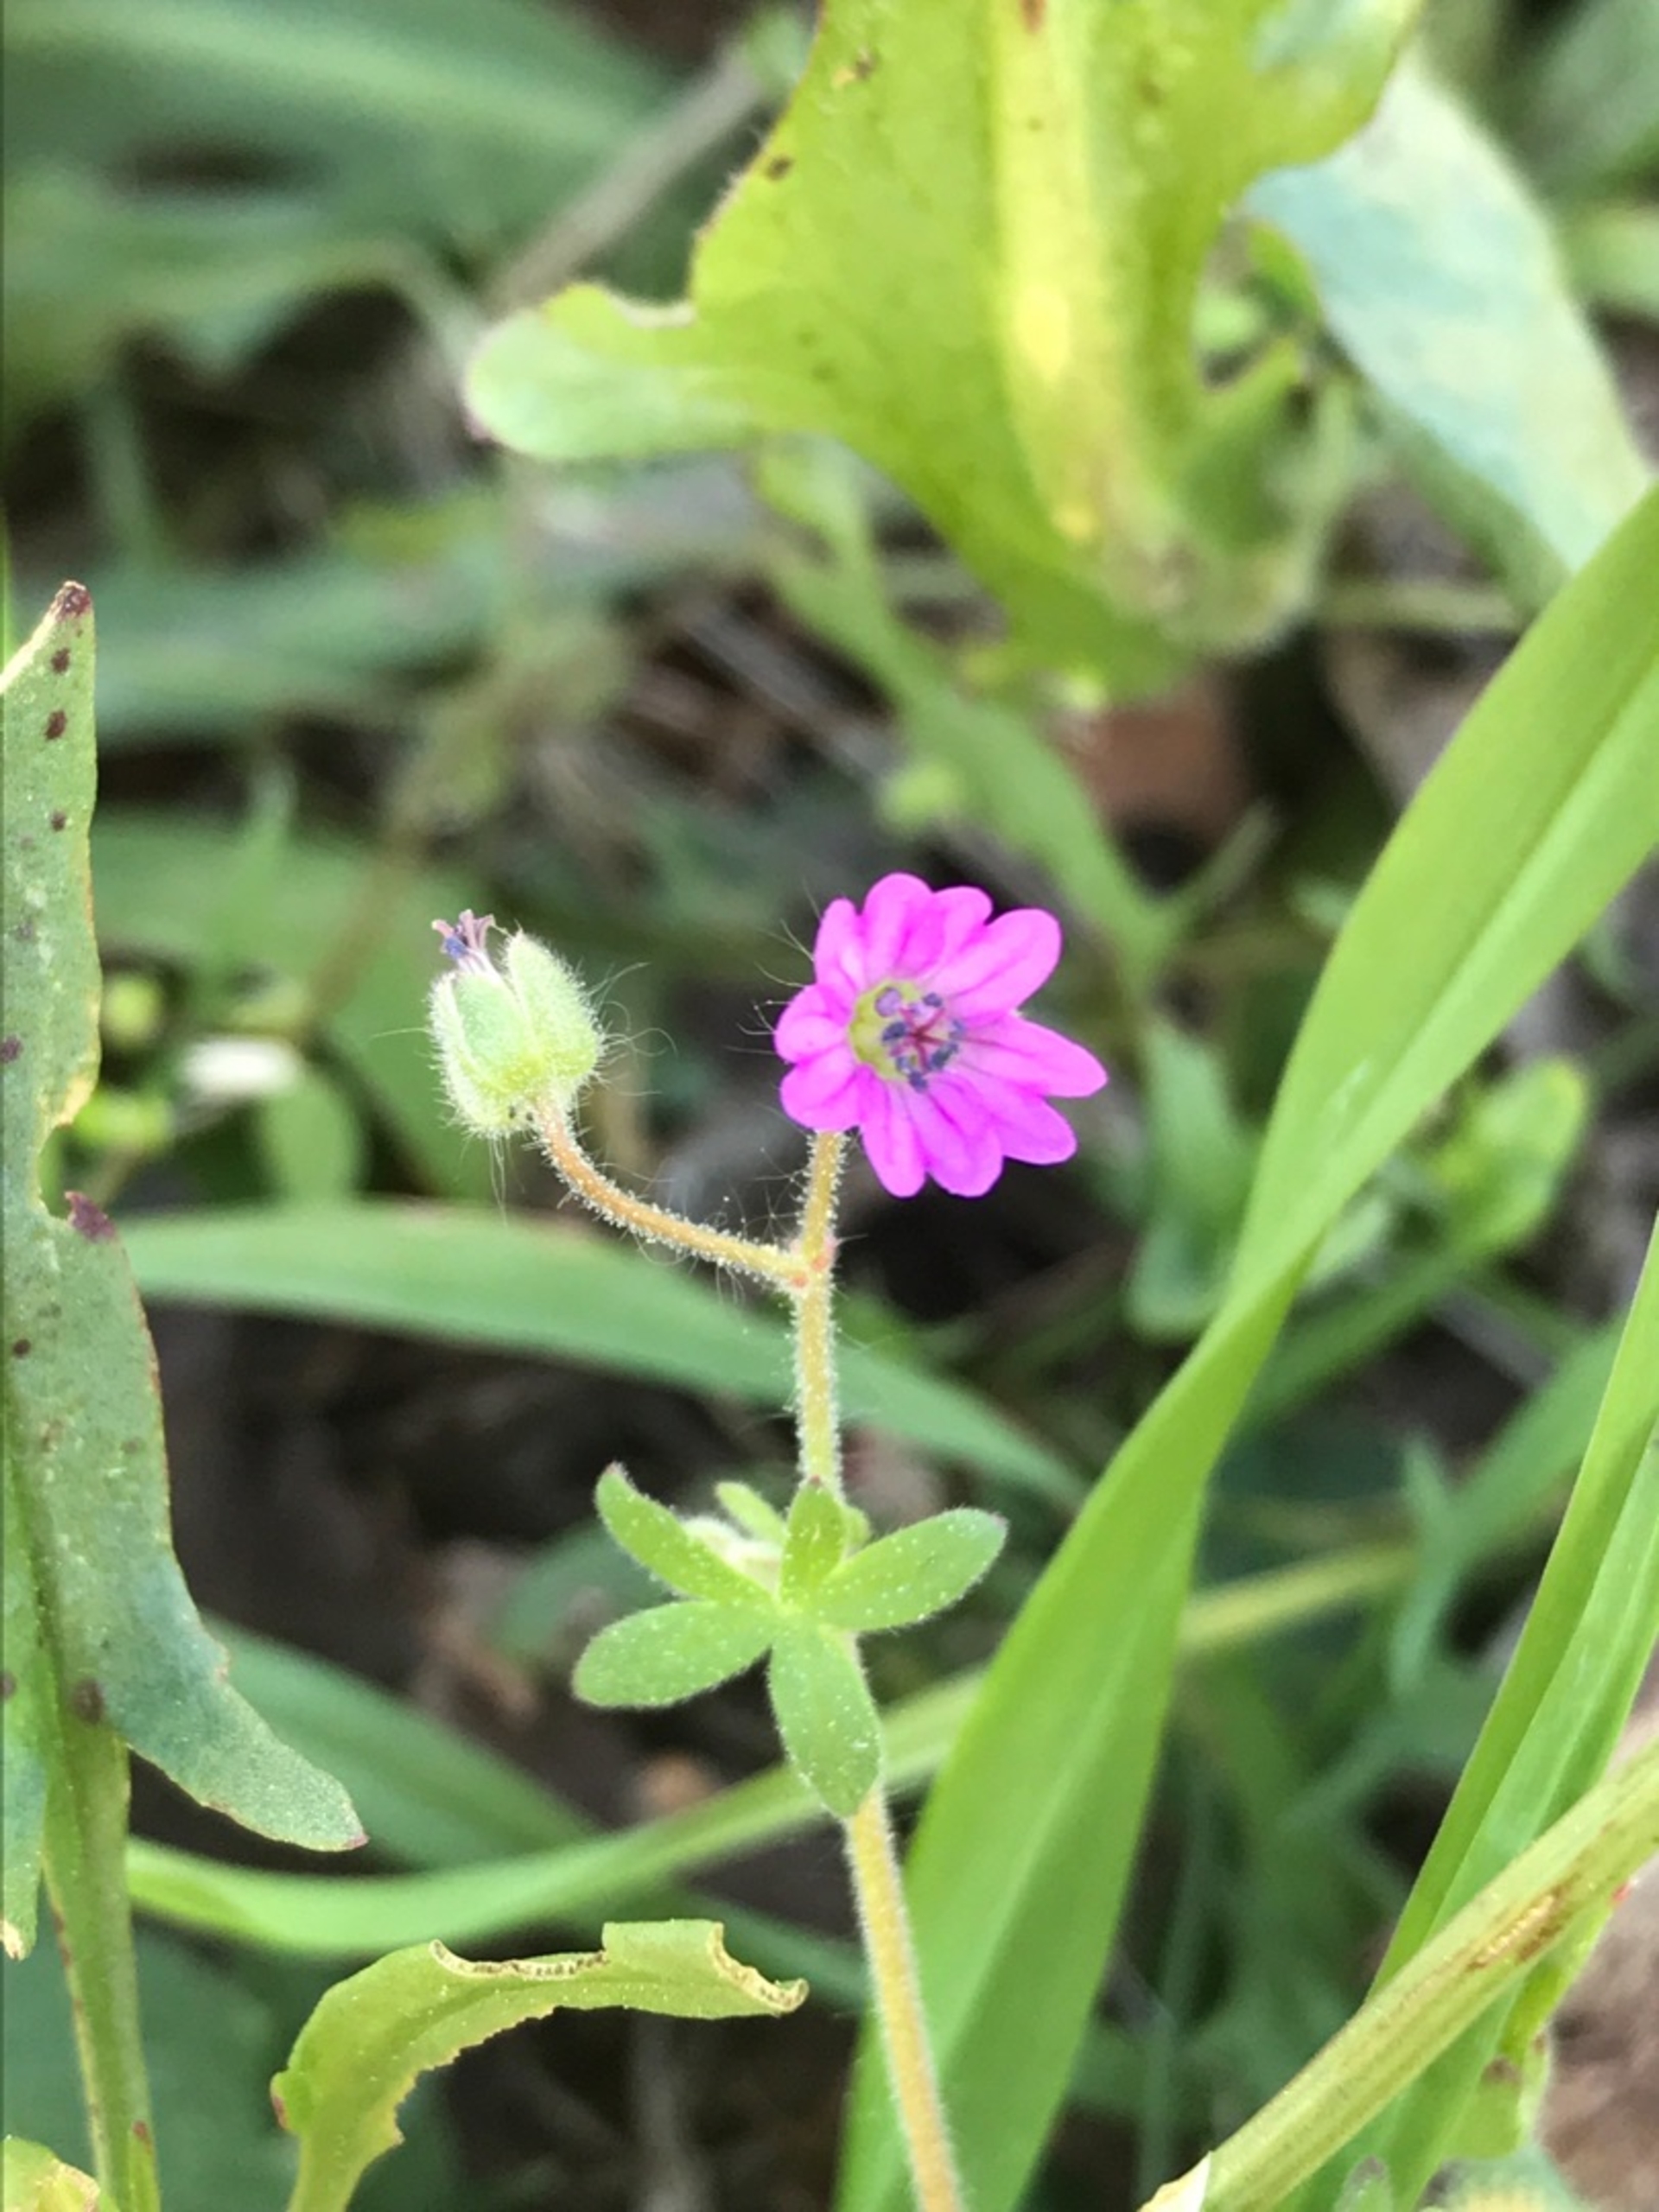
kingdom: Plantae
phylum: Tracheophyta
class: Magnoliopsida
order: Geraniales
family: Geraniaceae
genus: Geranium
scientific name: Geranium molle
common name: Blød storkenæb
